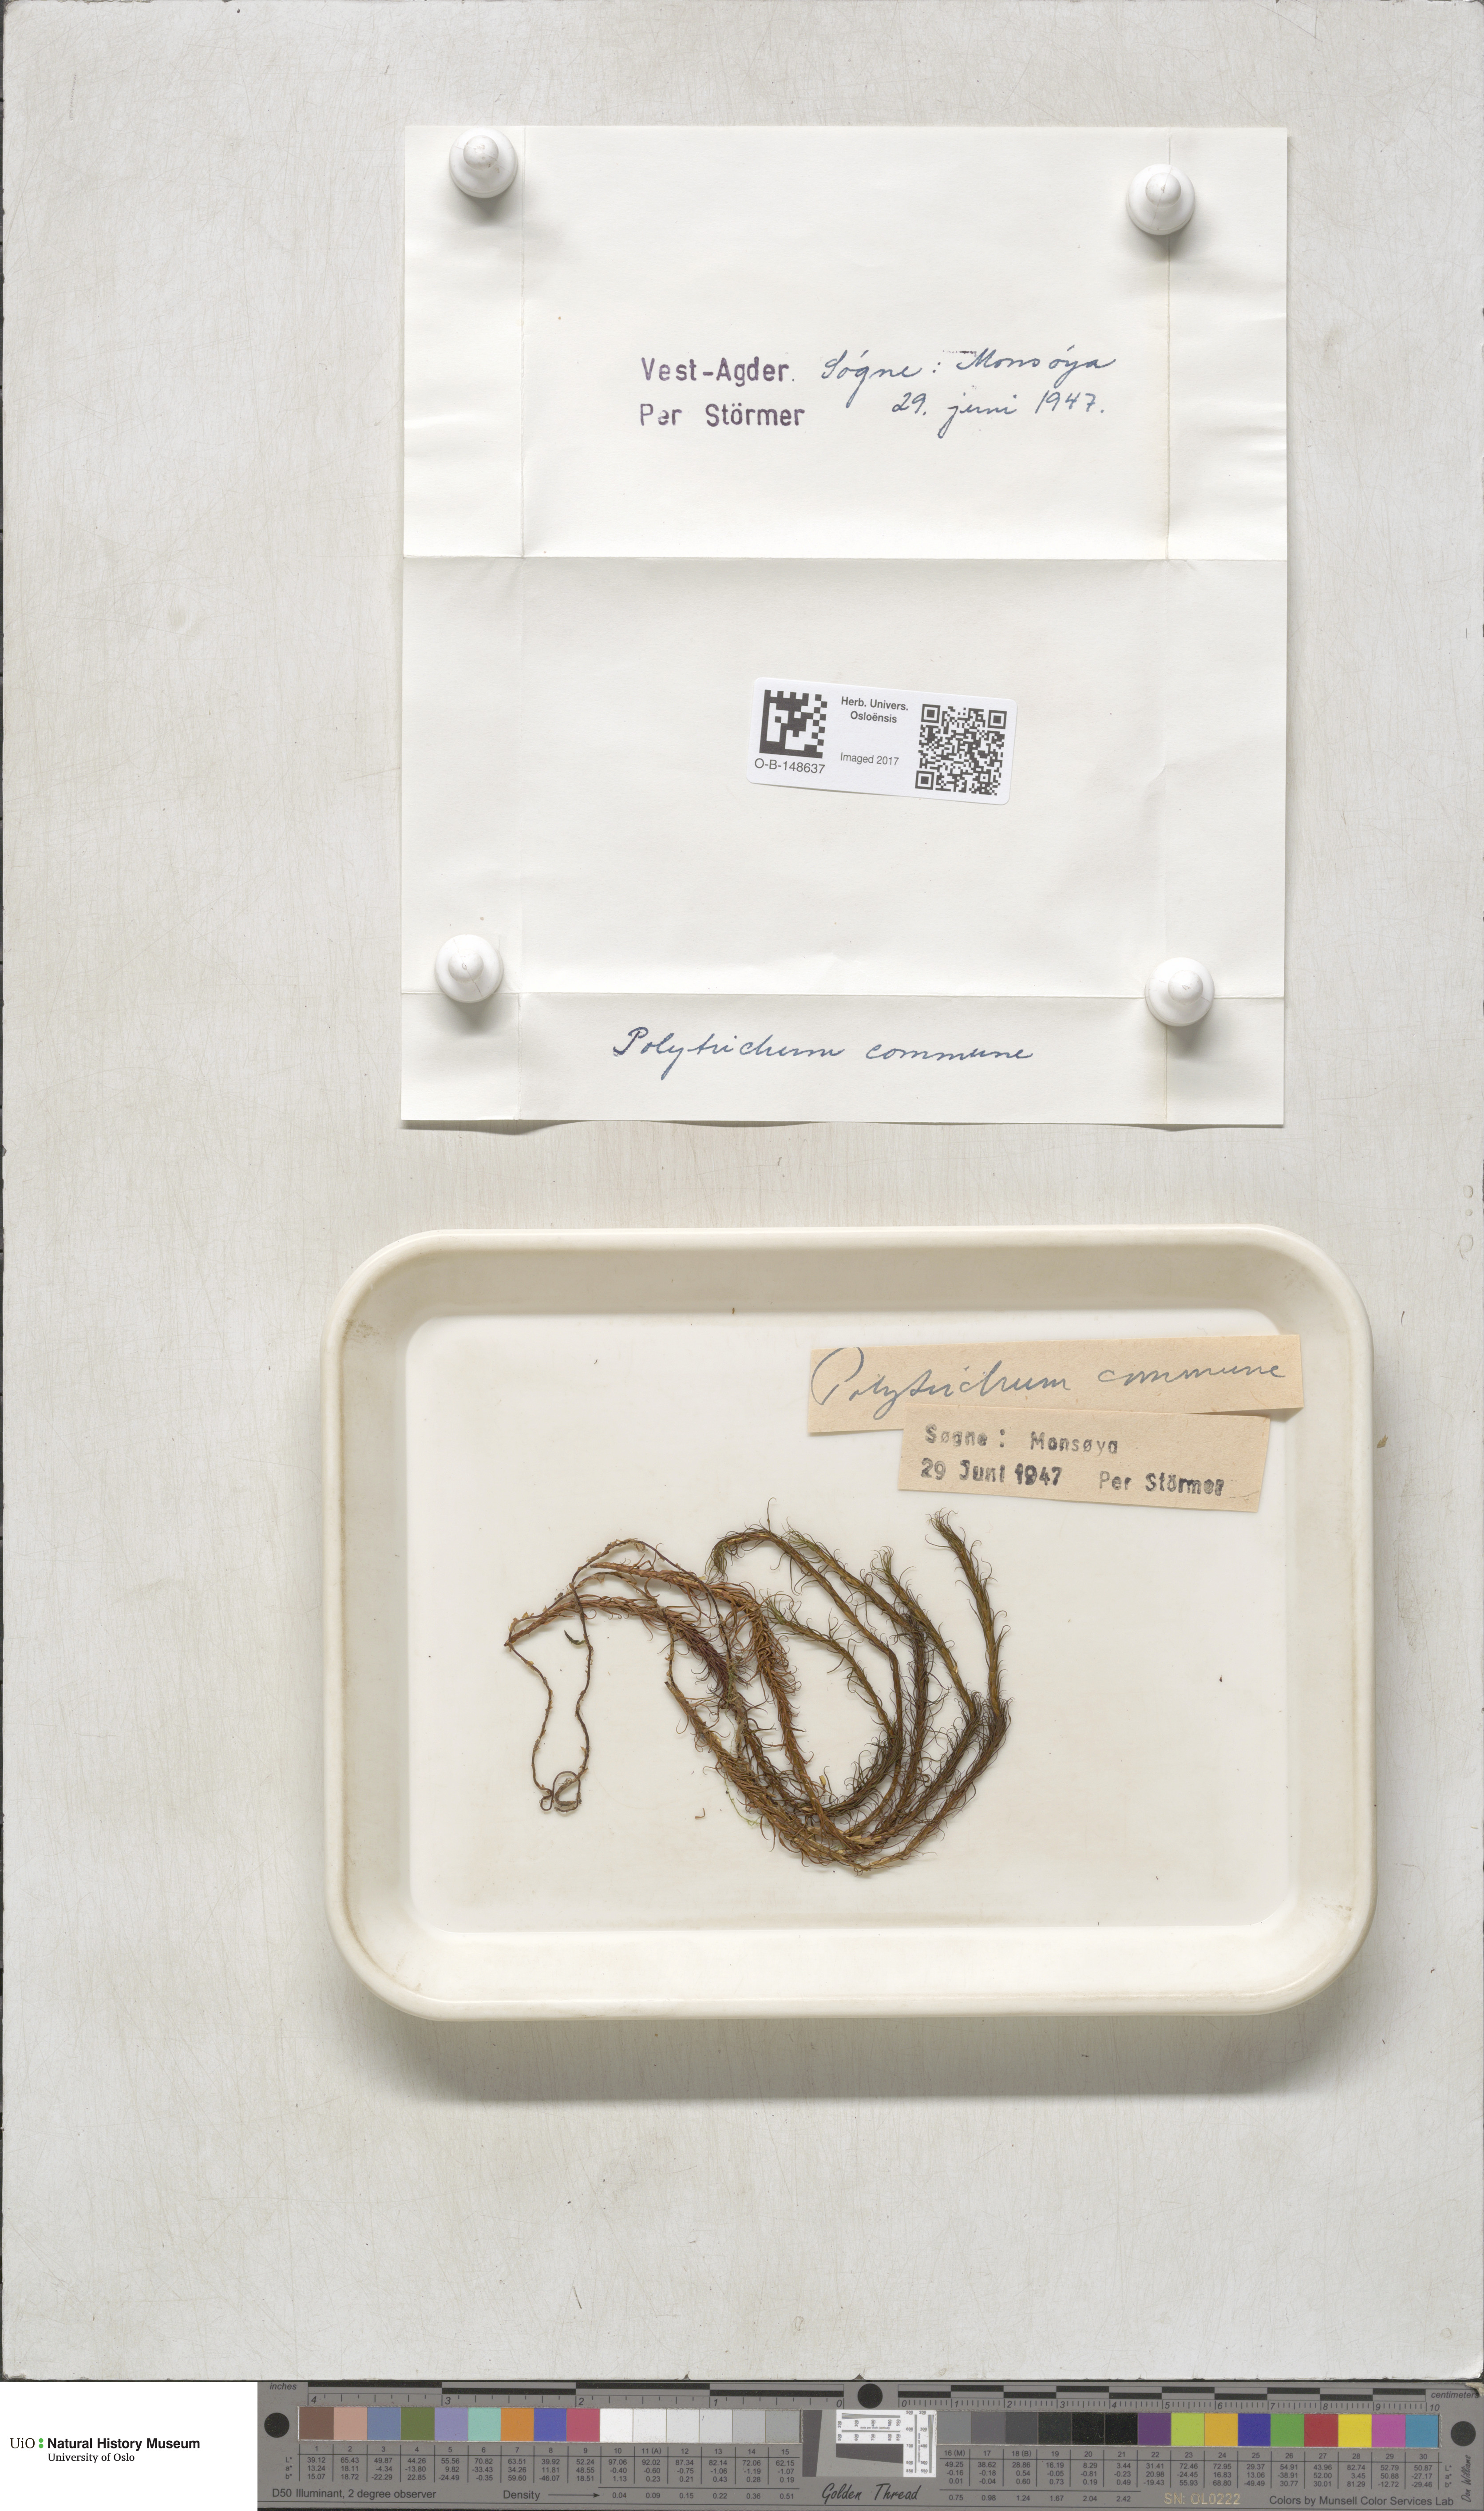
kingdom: Plantae
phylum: Bryophyta
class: Polytrichopsida
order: Polytrichales
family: Polytrichaceae
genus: Polytrichum
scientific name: Polytrichum commune
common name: Common haircap
